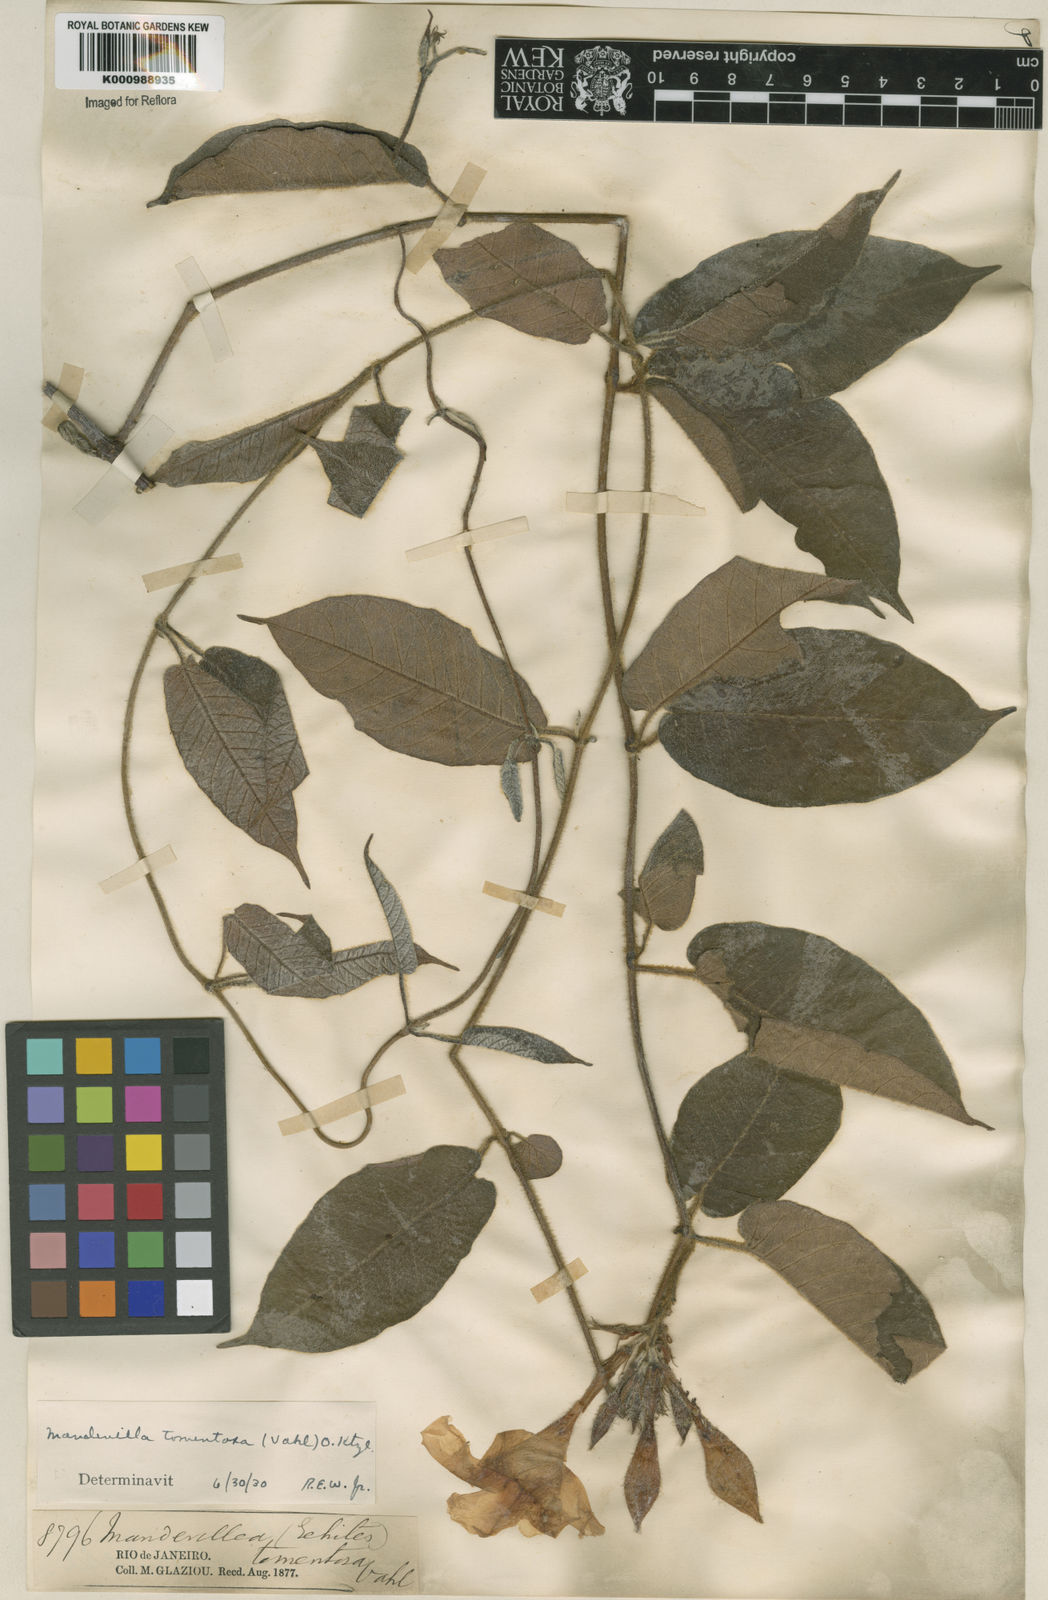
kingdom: Plantae
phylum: Tracheophyta
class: Magnoliopsida
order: Gentianales
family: Apocynaceae
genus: Mandevilla
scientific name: Mandevilla hirsuta
